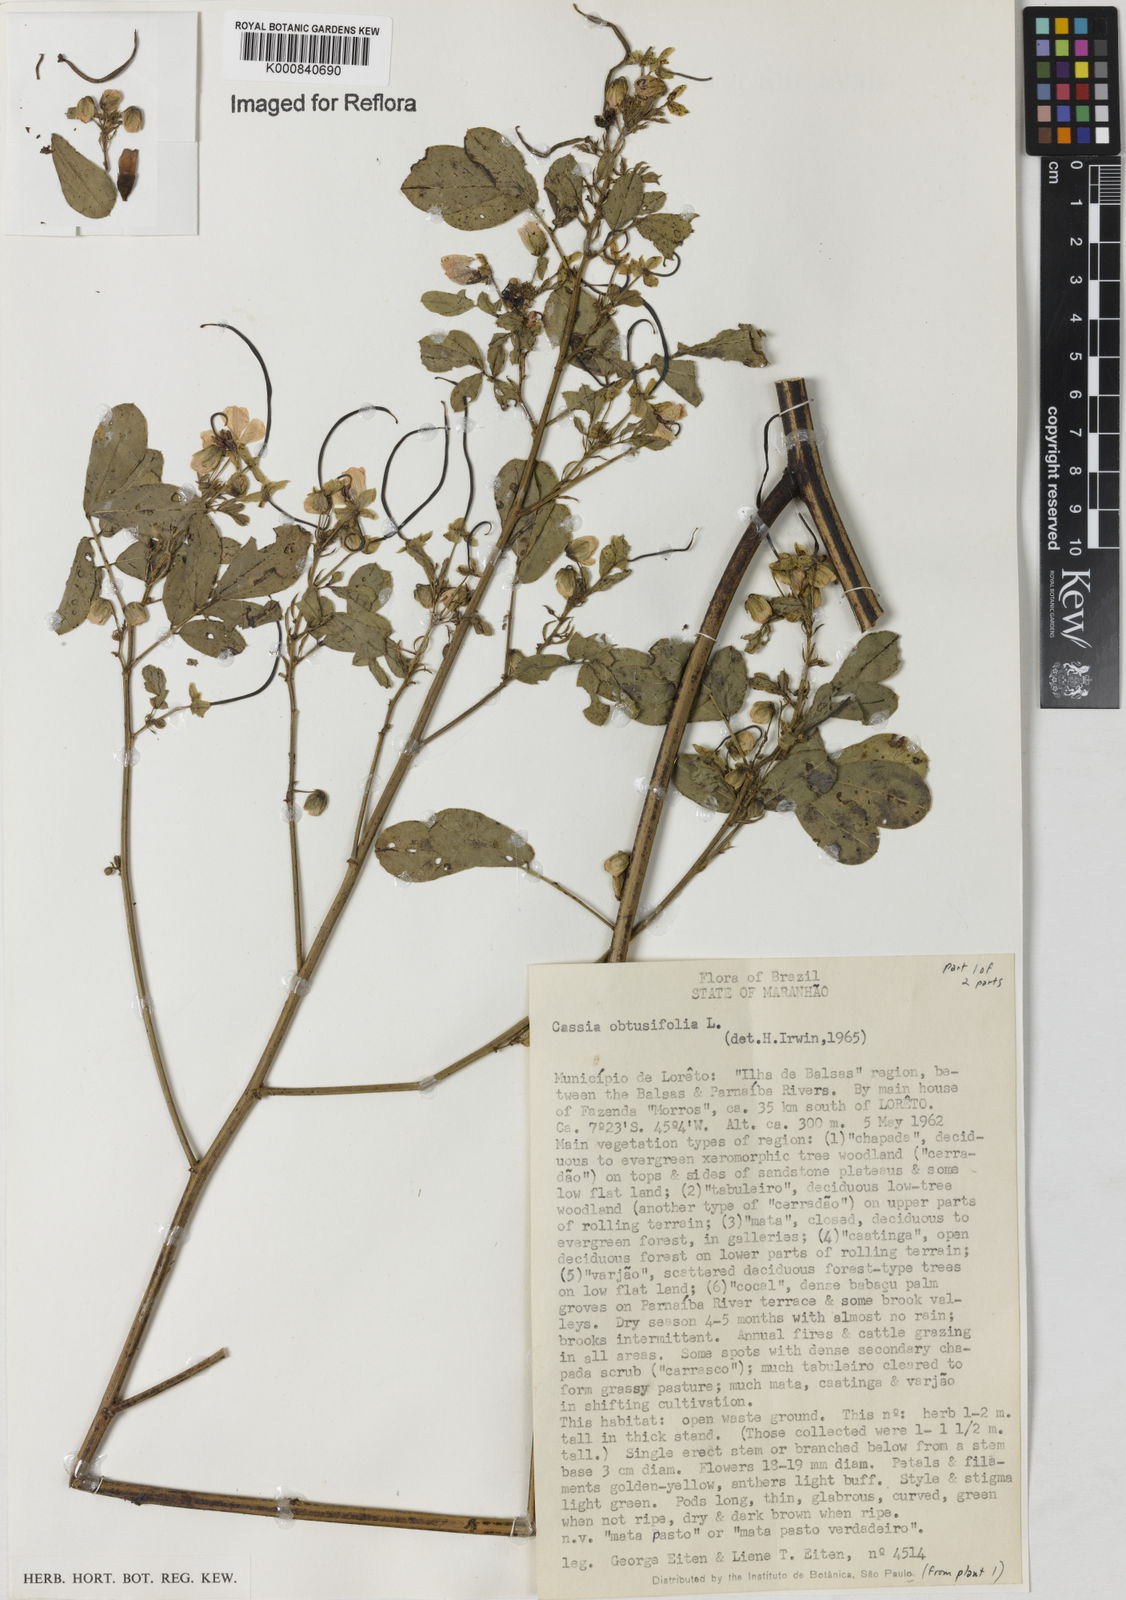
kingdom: Plantae
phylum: Tracheophyta
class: Magnoliopsida
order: Fabales
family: Fabaceae
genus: Senna
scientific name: Senna obtusifolia
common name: Java-bean
